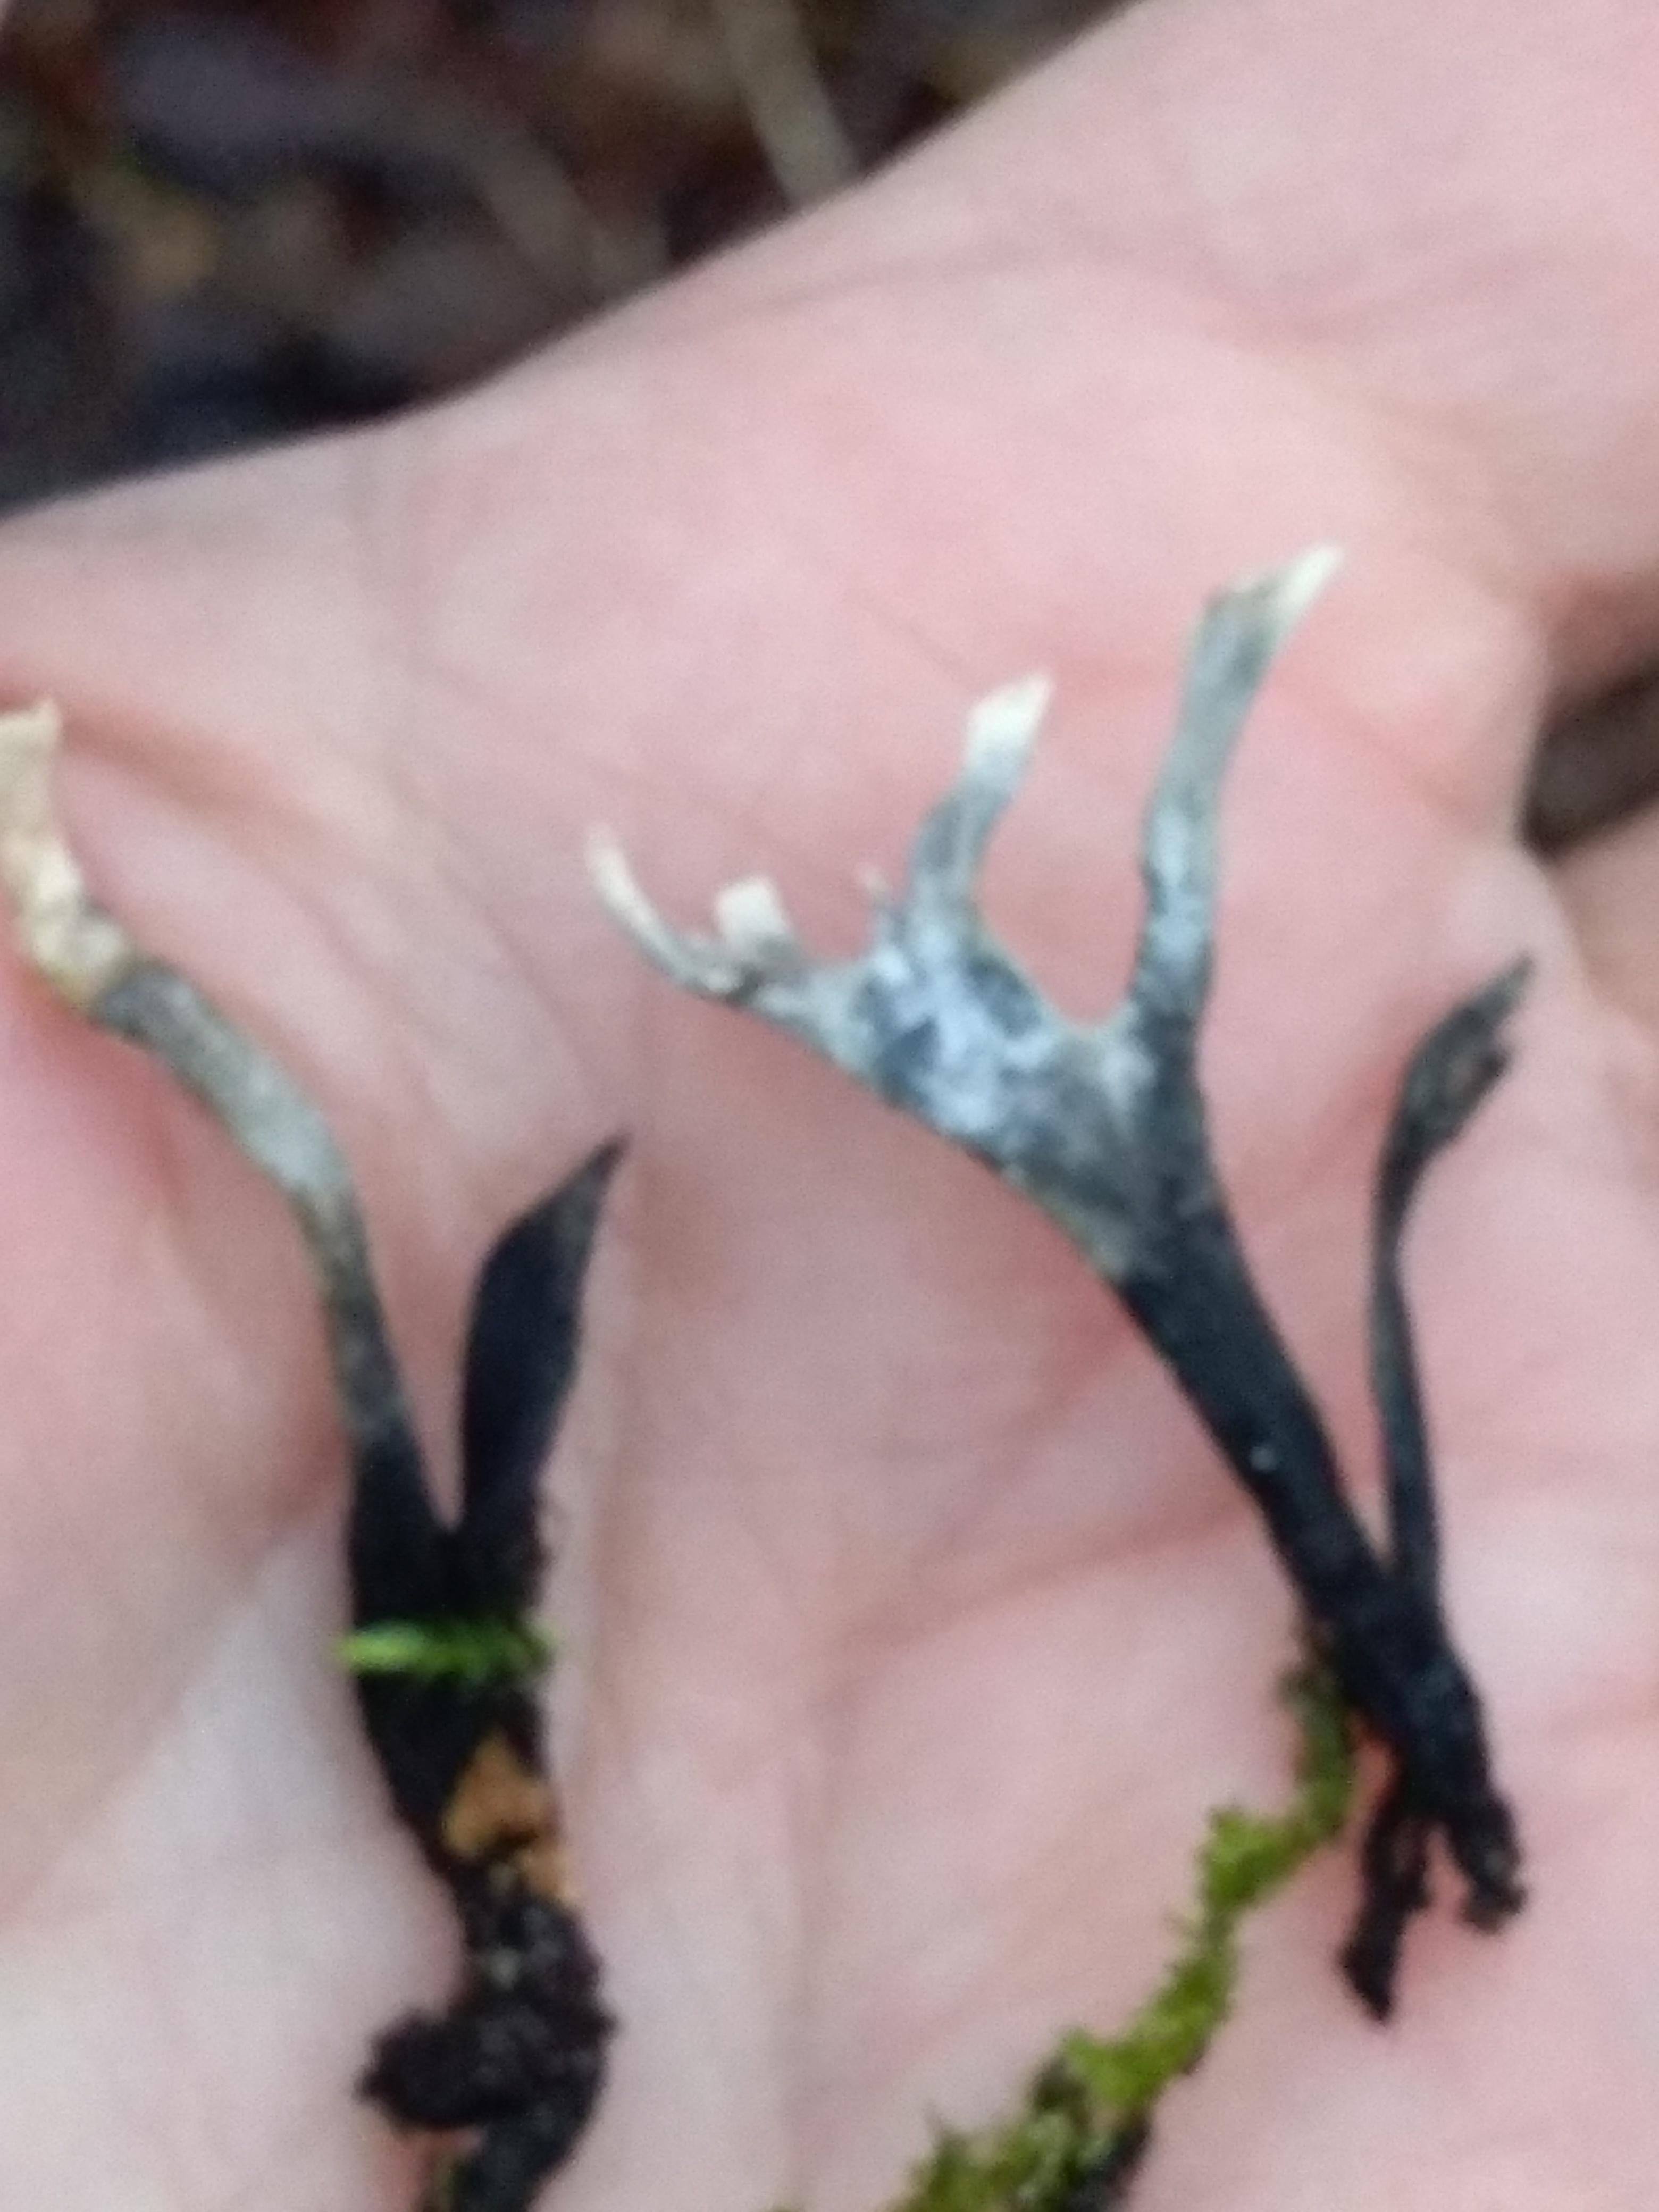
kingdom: Fungi
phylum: Ascomycota
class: Sordariomycetes
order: Xylariales
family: Xylariaceae
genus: Xylaria
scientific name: Xylaria hypoxylon
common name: grenet stødsvamp
